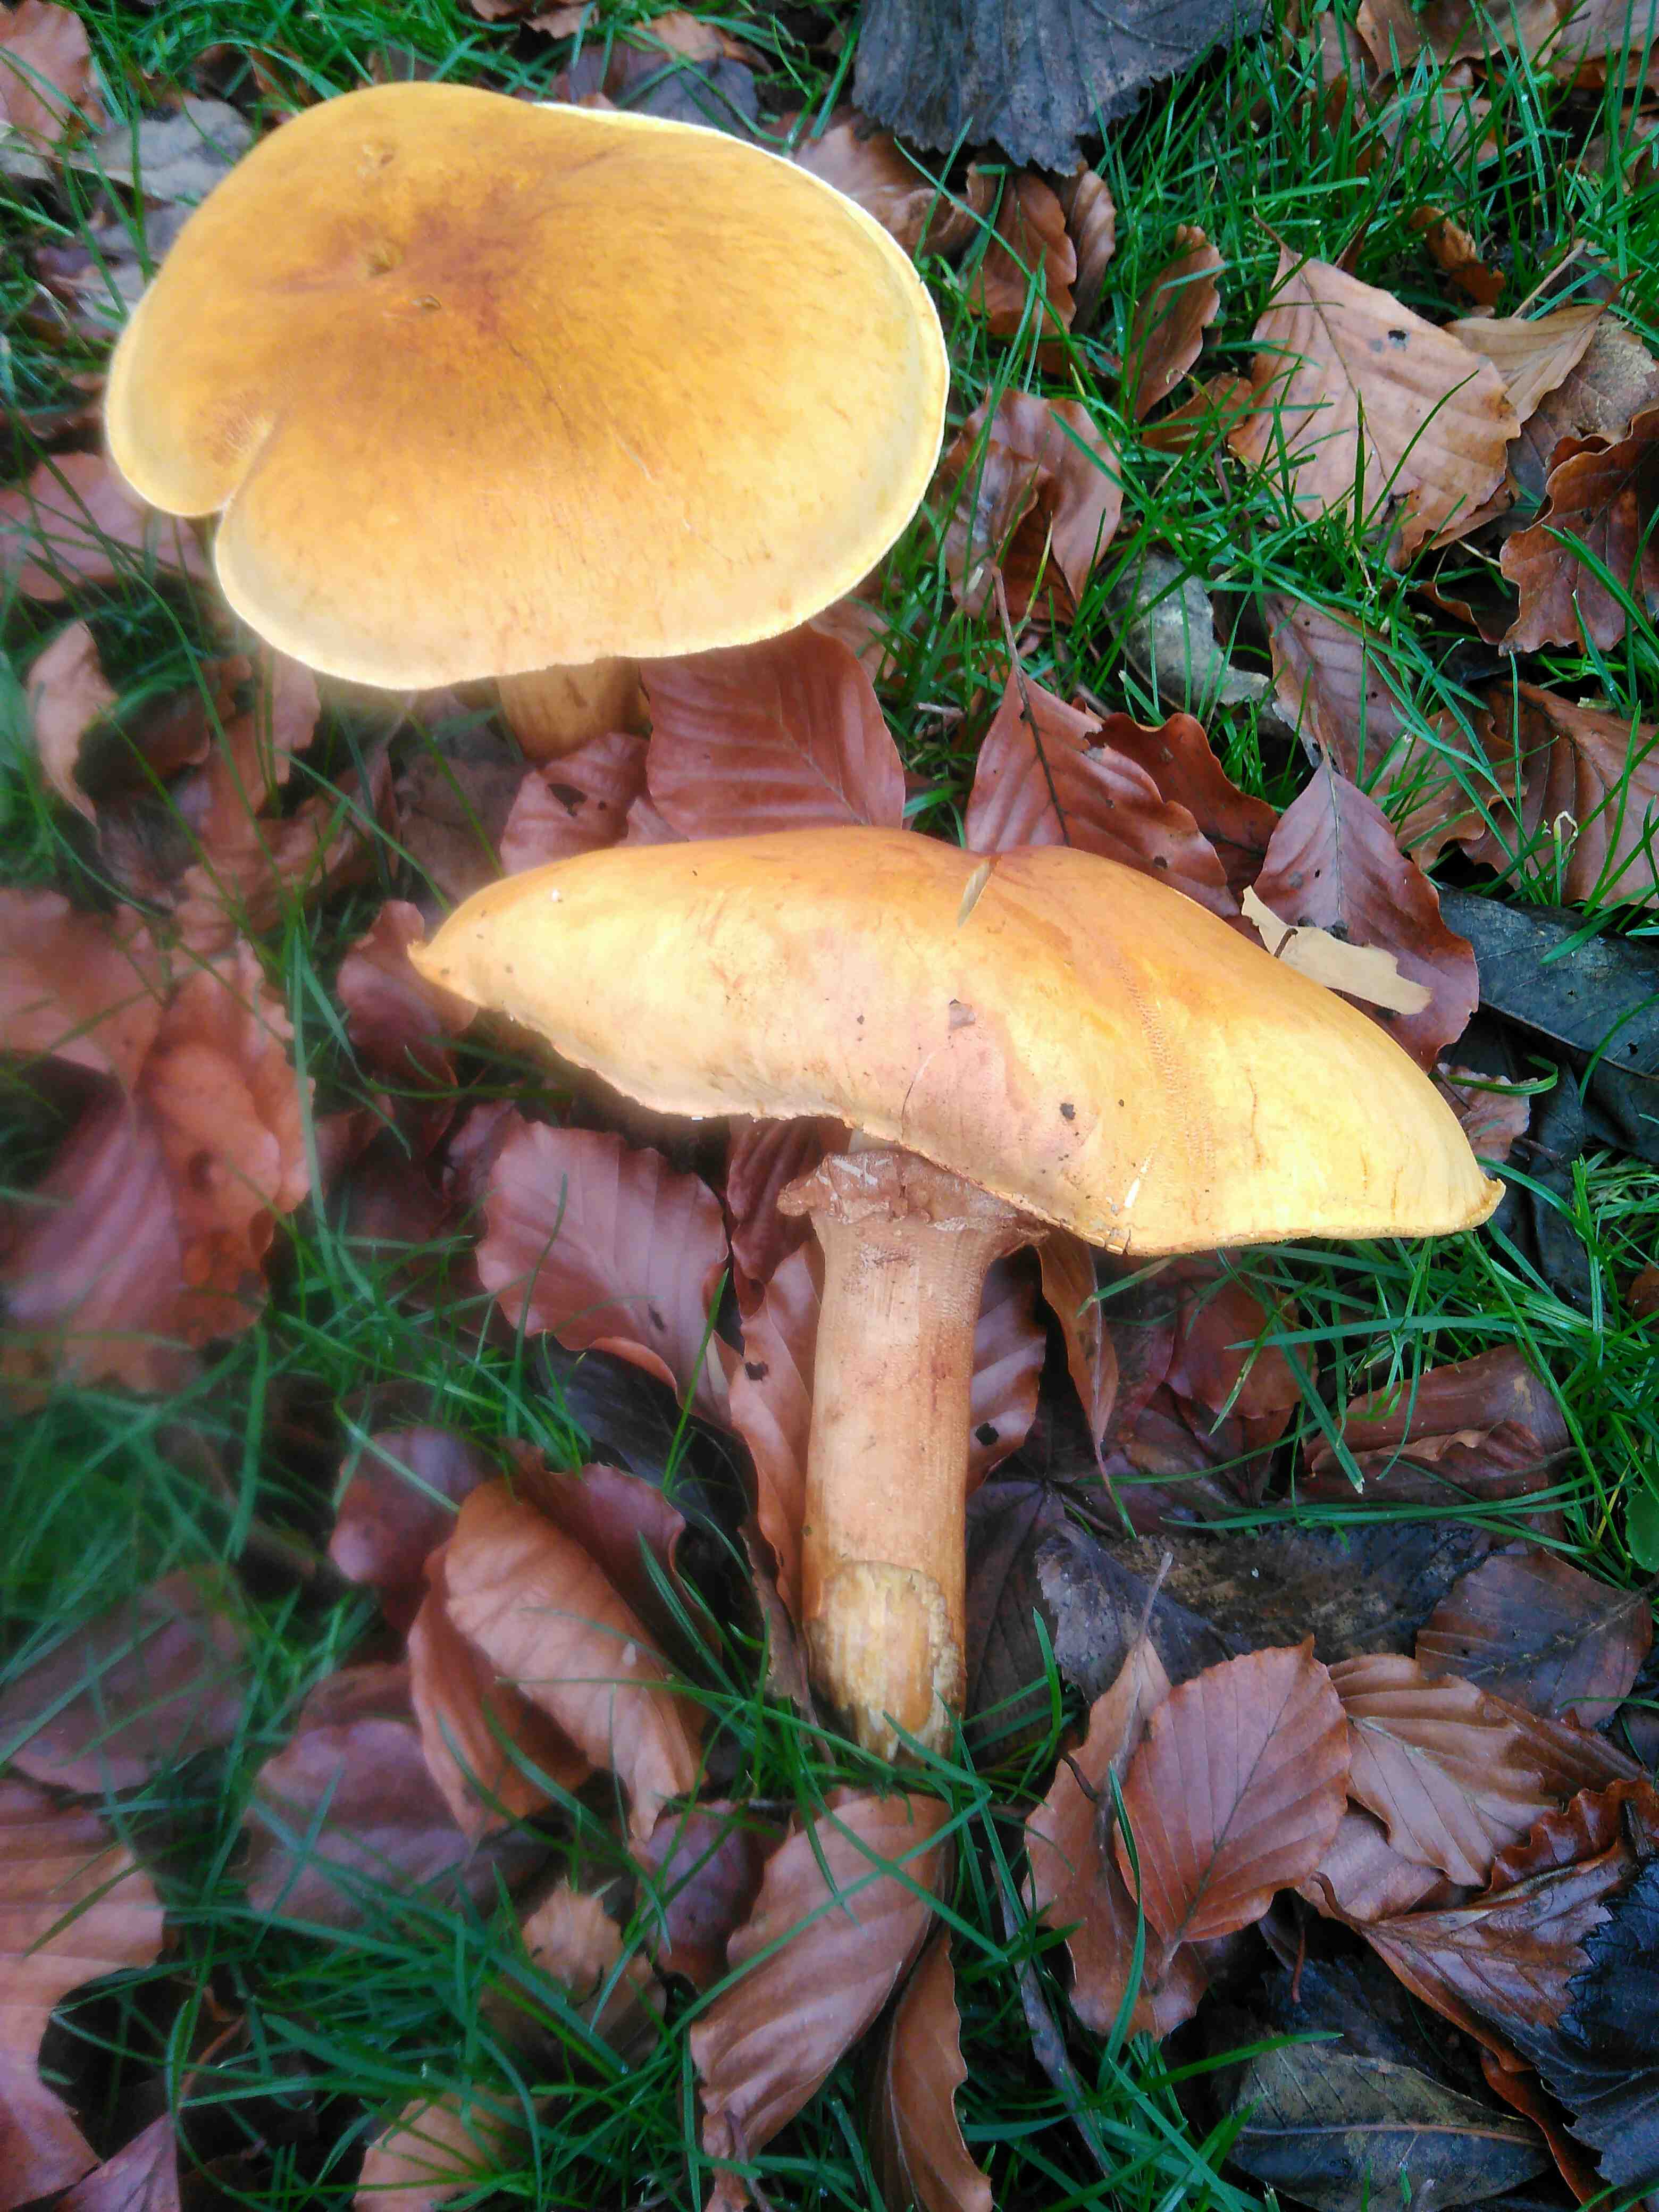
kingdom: Fungi
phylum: Basidiomycota
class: Agaricomycetes
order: Agaricales
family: Tricholomataceae
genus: Phaeolepiota
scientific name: Phaeolepiota aurea
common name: gyldenhat
